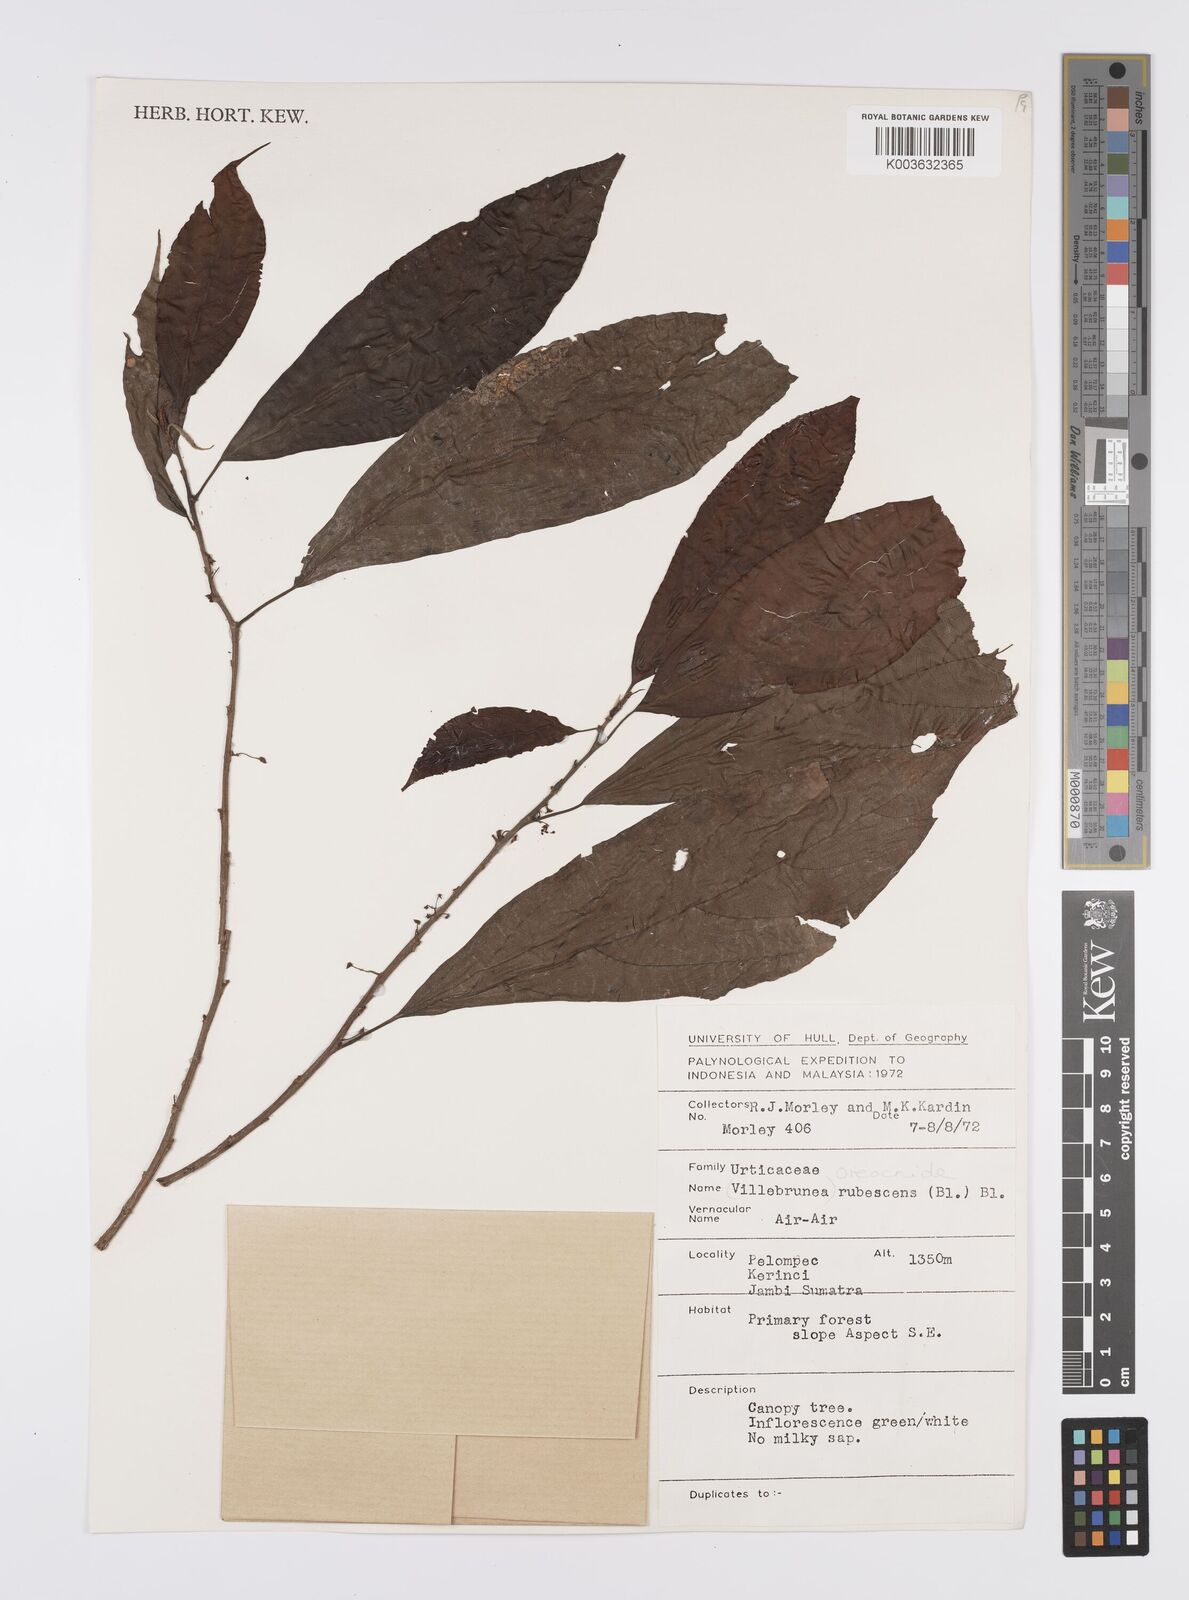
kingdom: Plantae
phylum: Tracheophyta
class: Magnoliopsida
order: Rosales
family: Urticaceae
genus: Oreocnide
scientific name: Oreocnide rubescens
